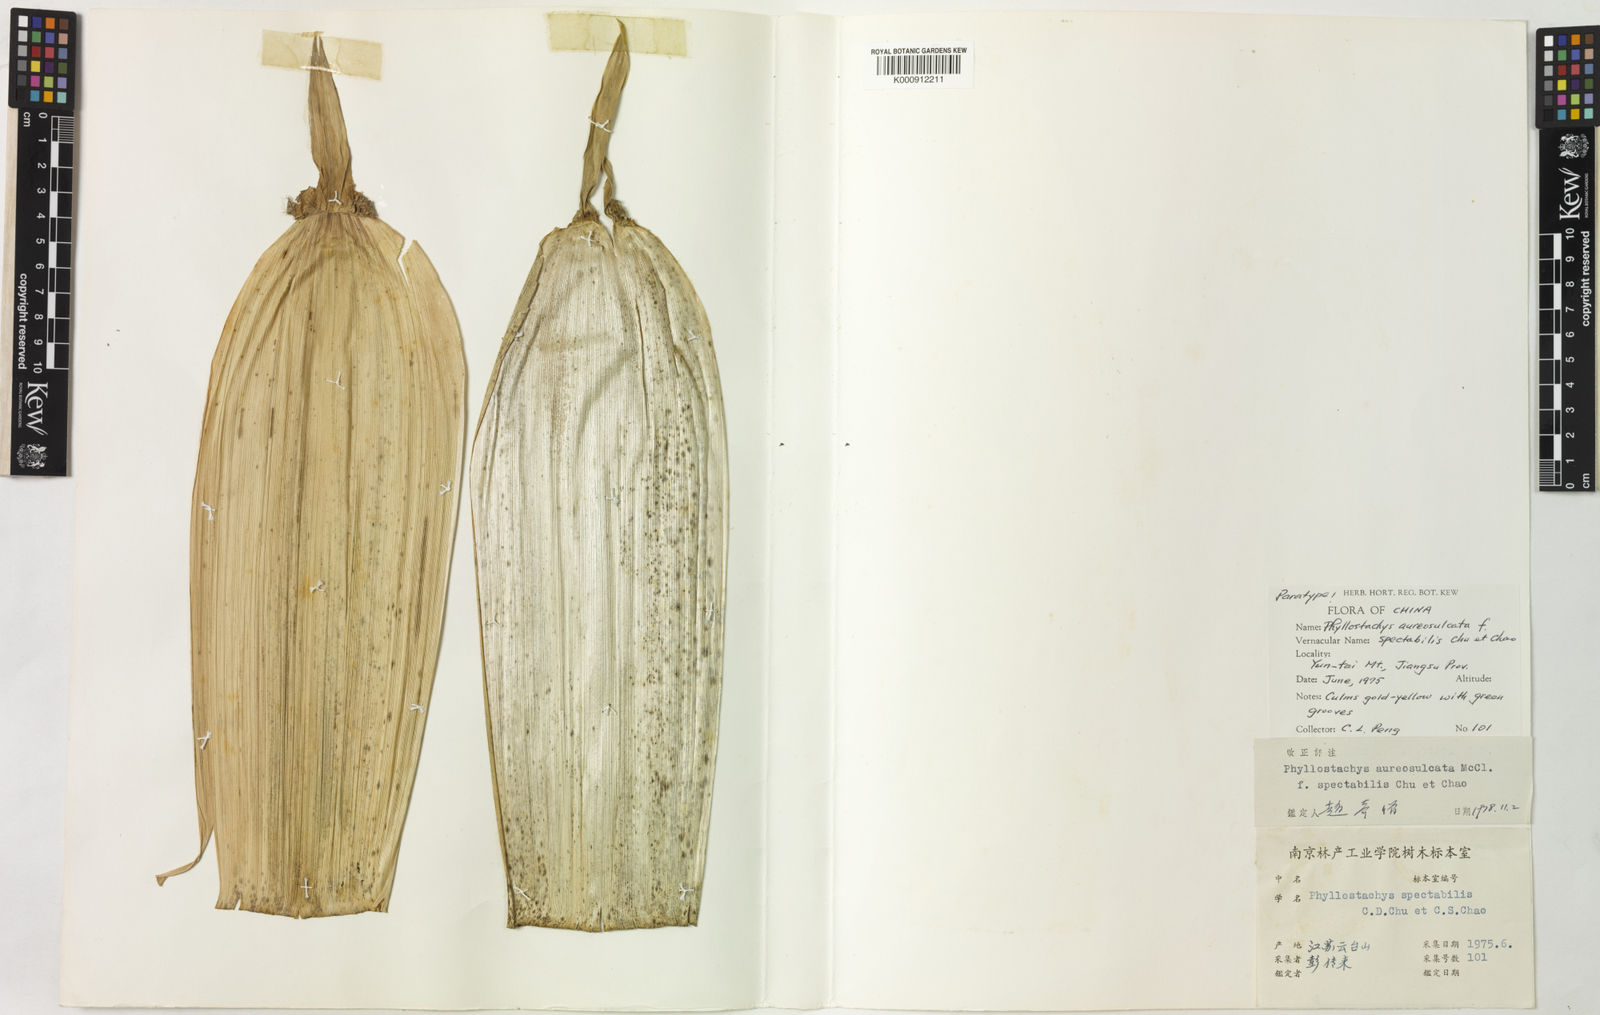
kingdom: Plantae
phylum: Tracheophyta
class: Liliopsida
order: Poales
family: Poaceae
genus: Phyllostachys
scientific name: Phyllostachys aureosulcata
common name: Yellow groove bamboo
